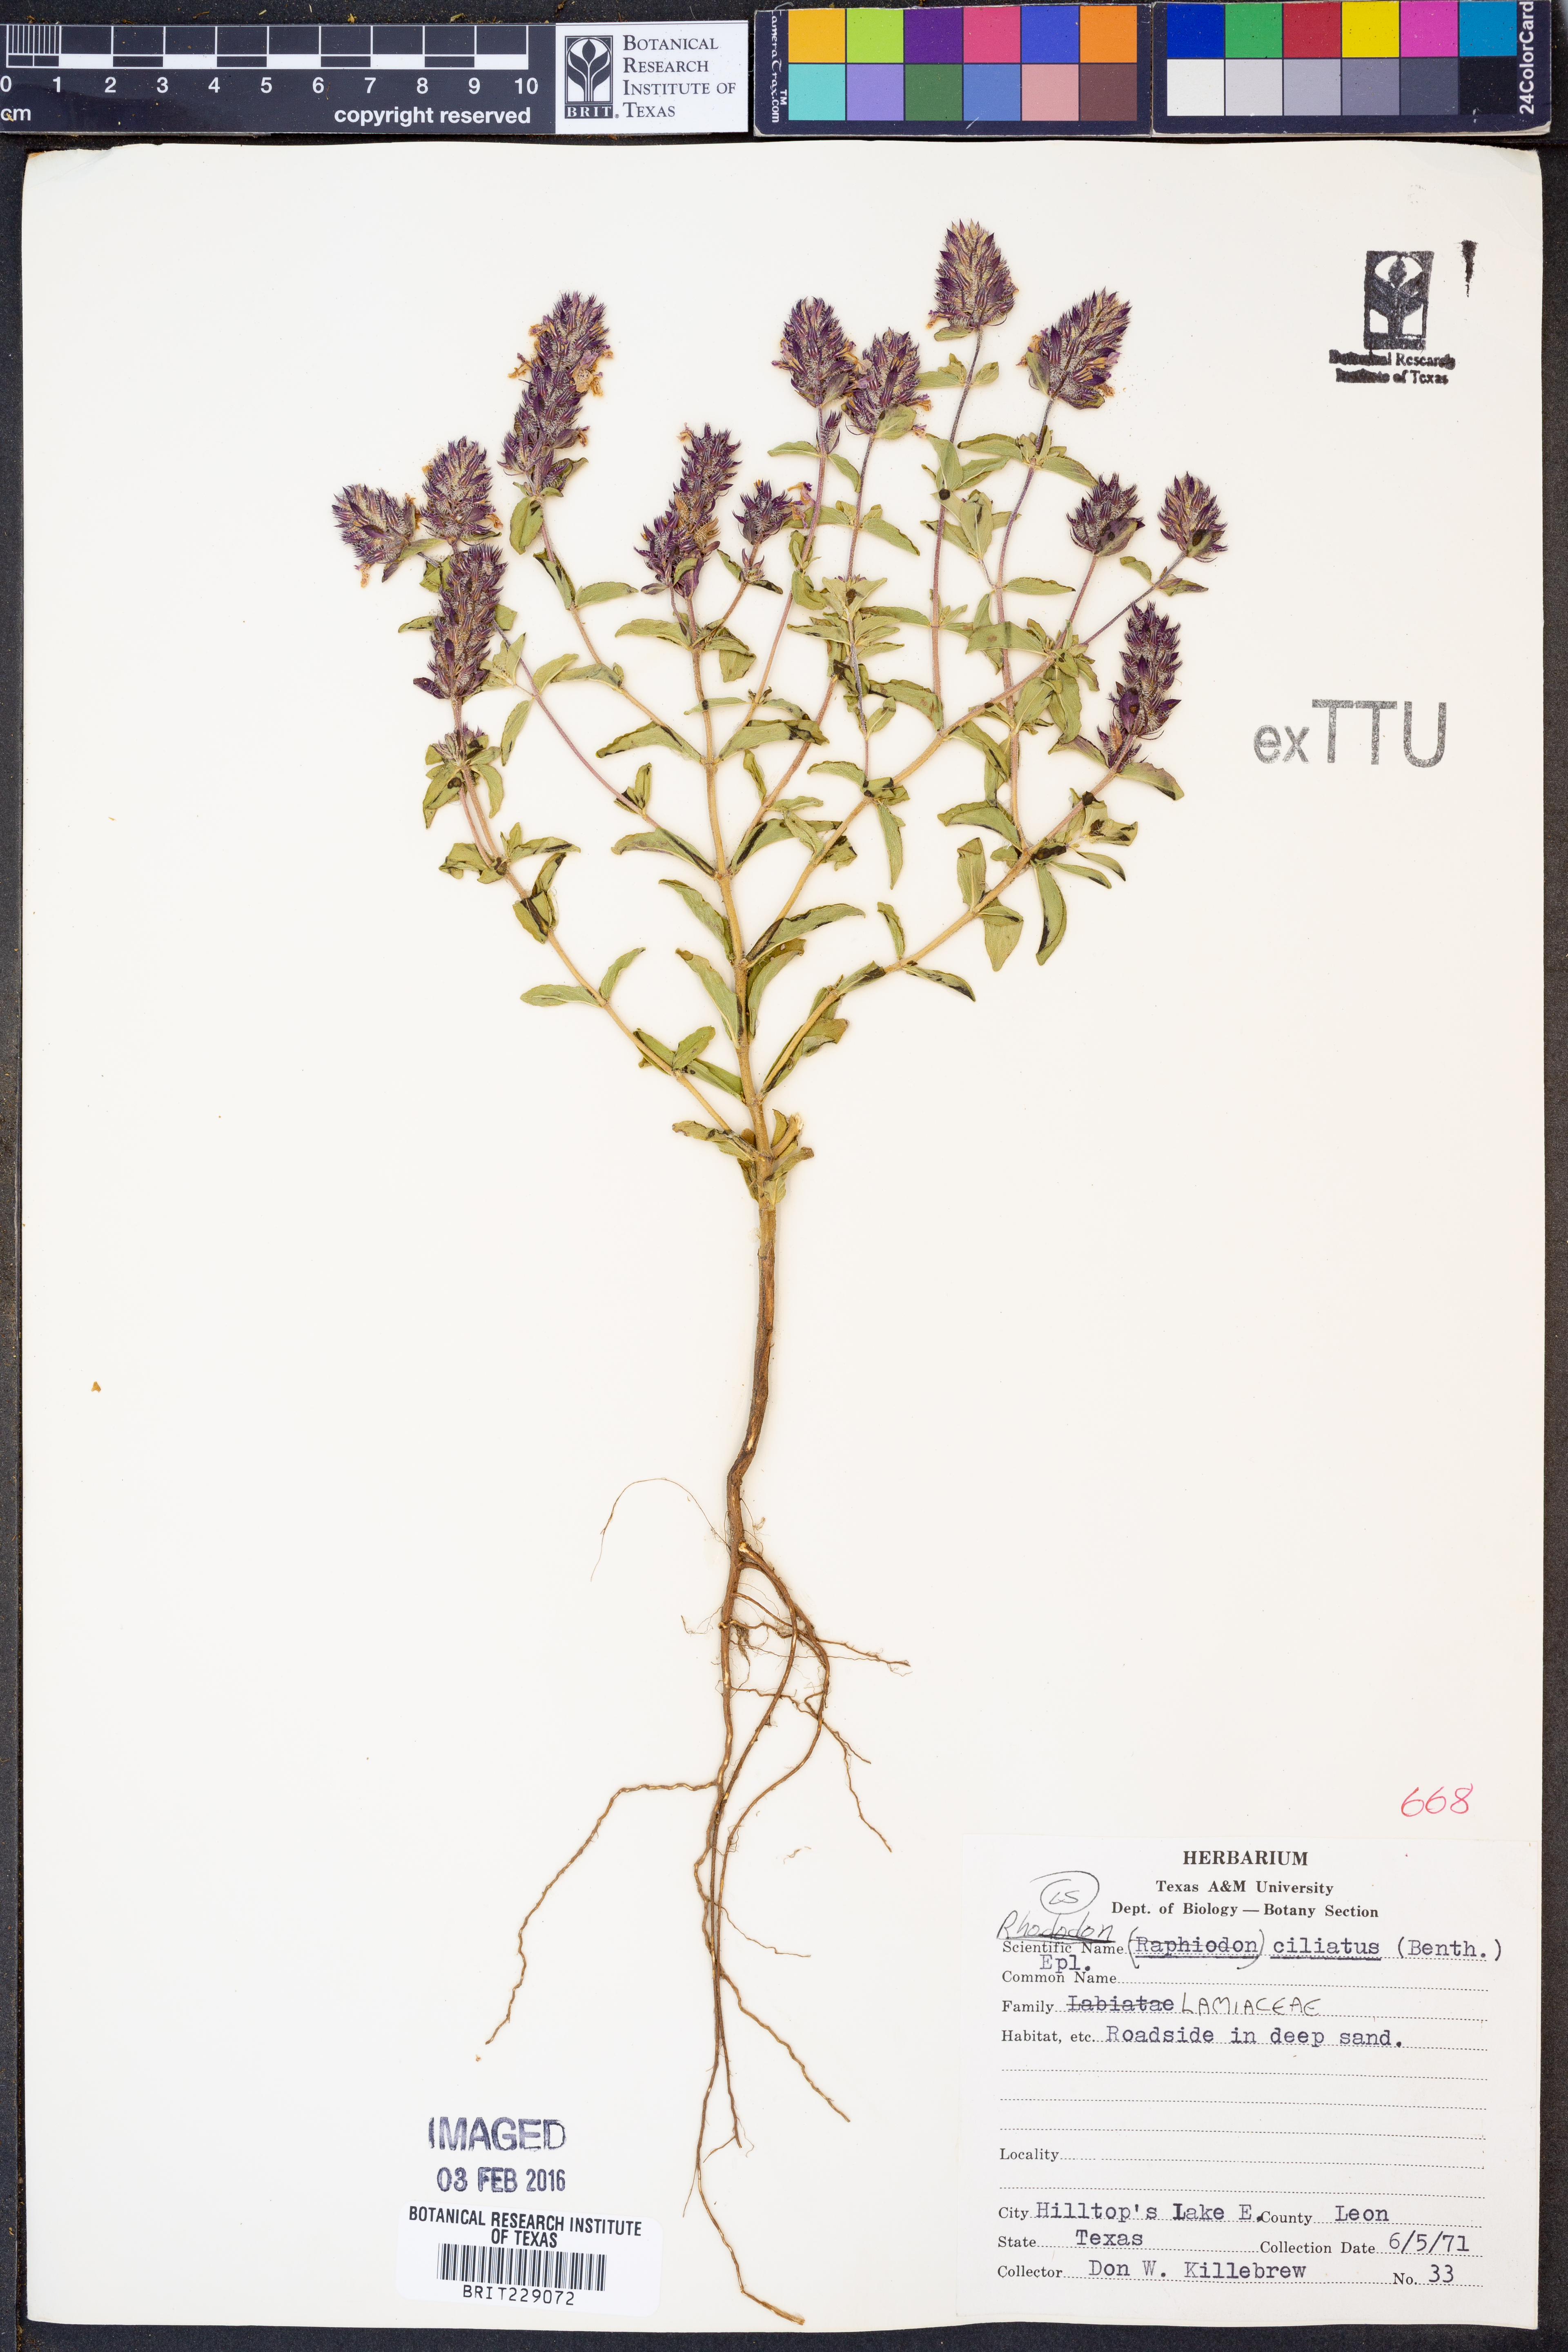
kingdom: Plantae
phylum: Tracheophyta
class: Magnoliopsida
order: Lamiales
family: Lamiaceae
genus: Rhododon
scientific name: Rhododon ciliatus
